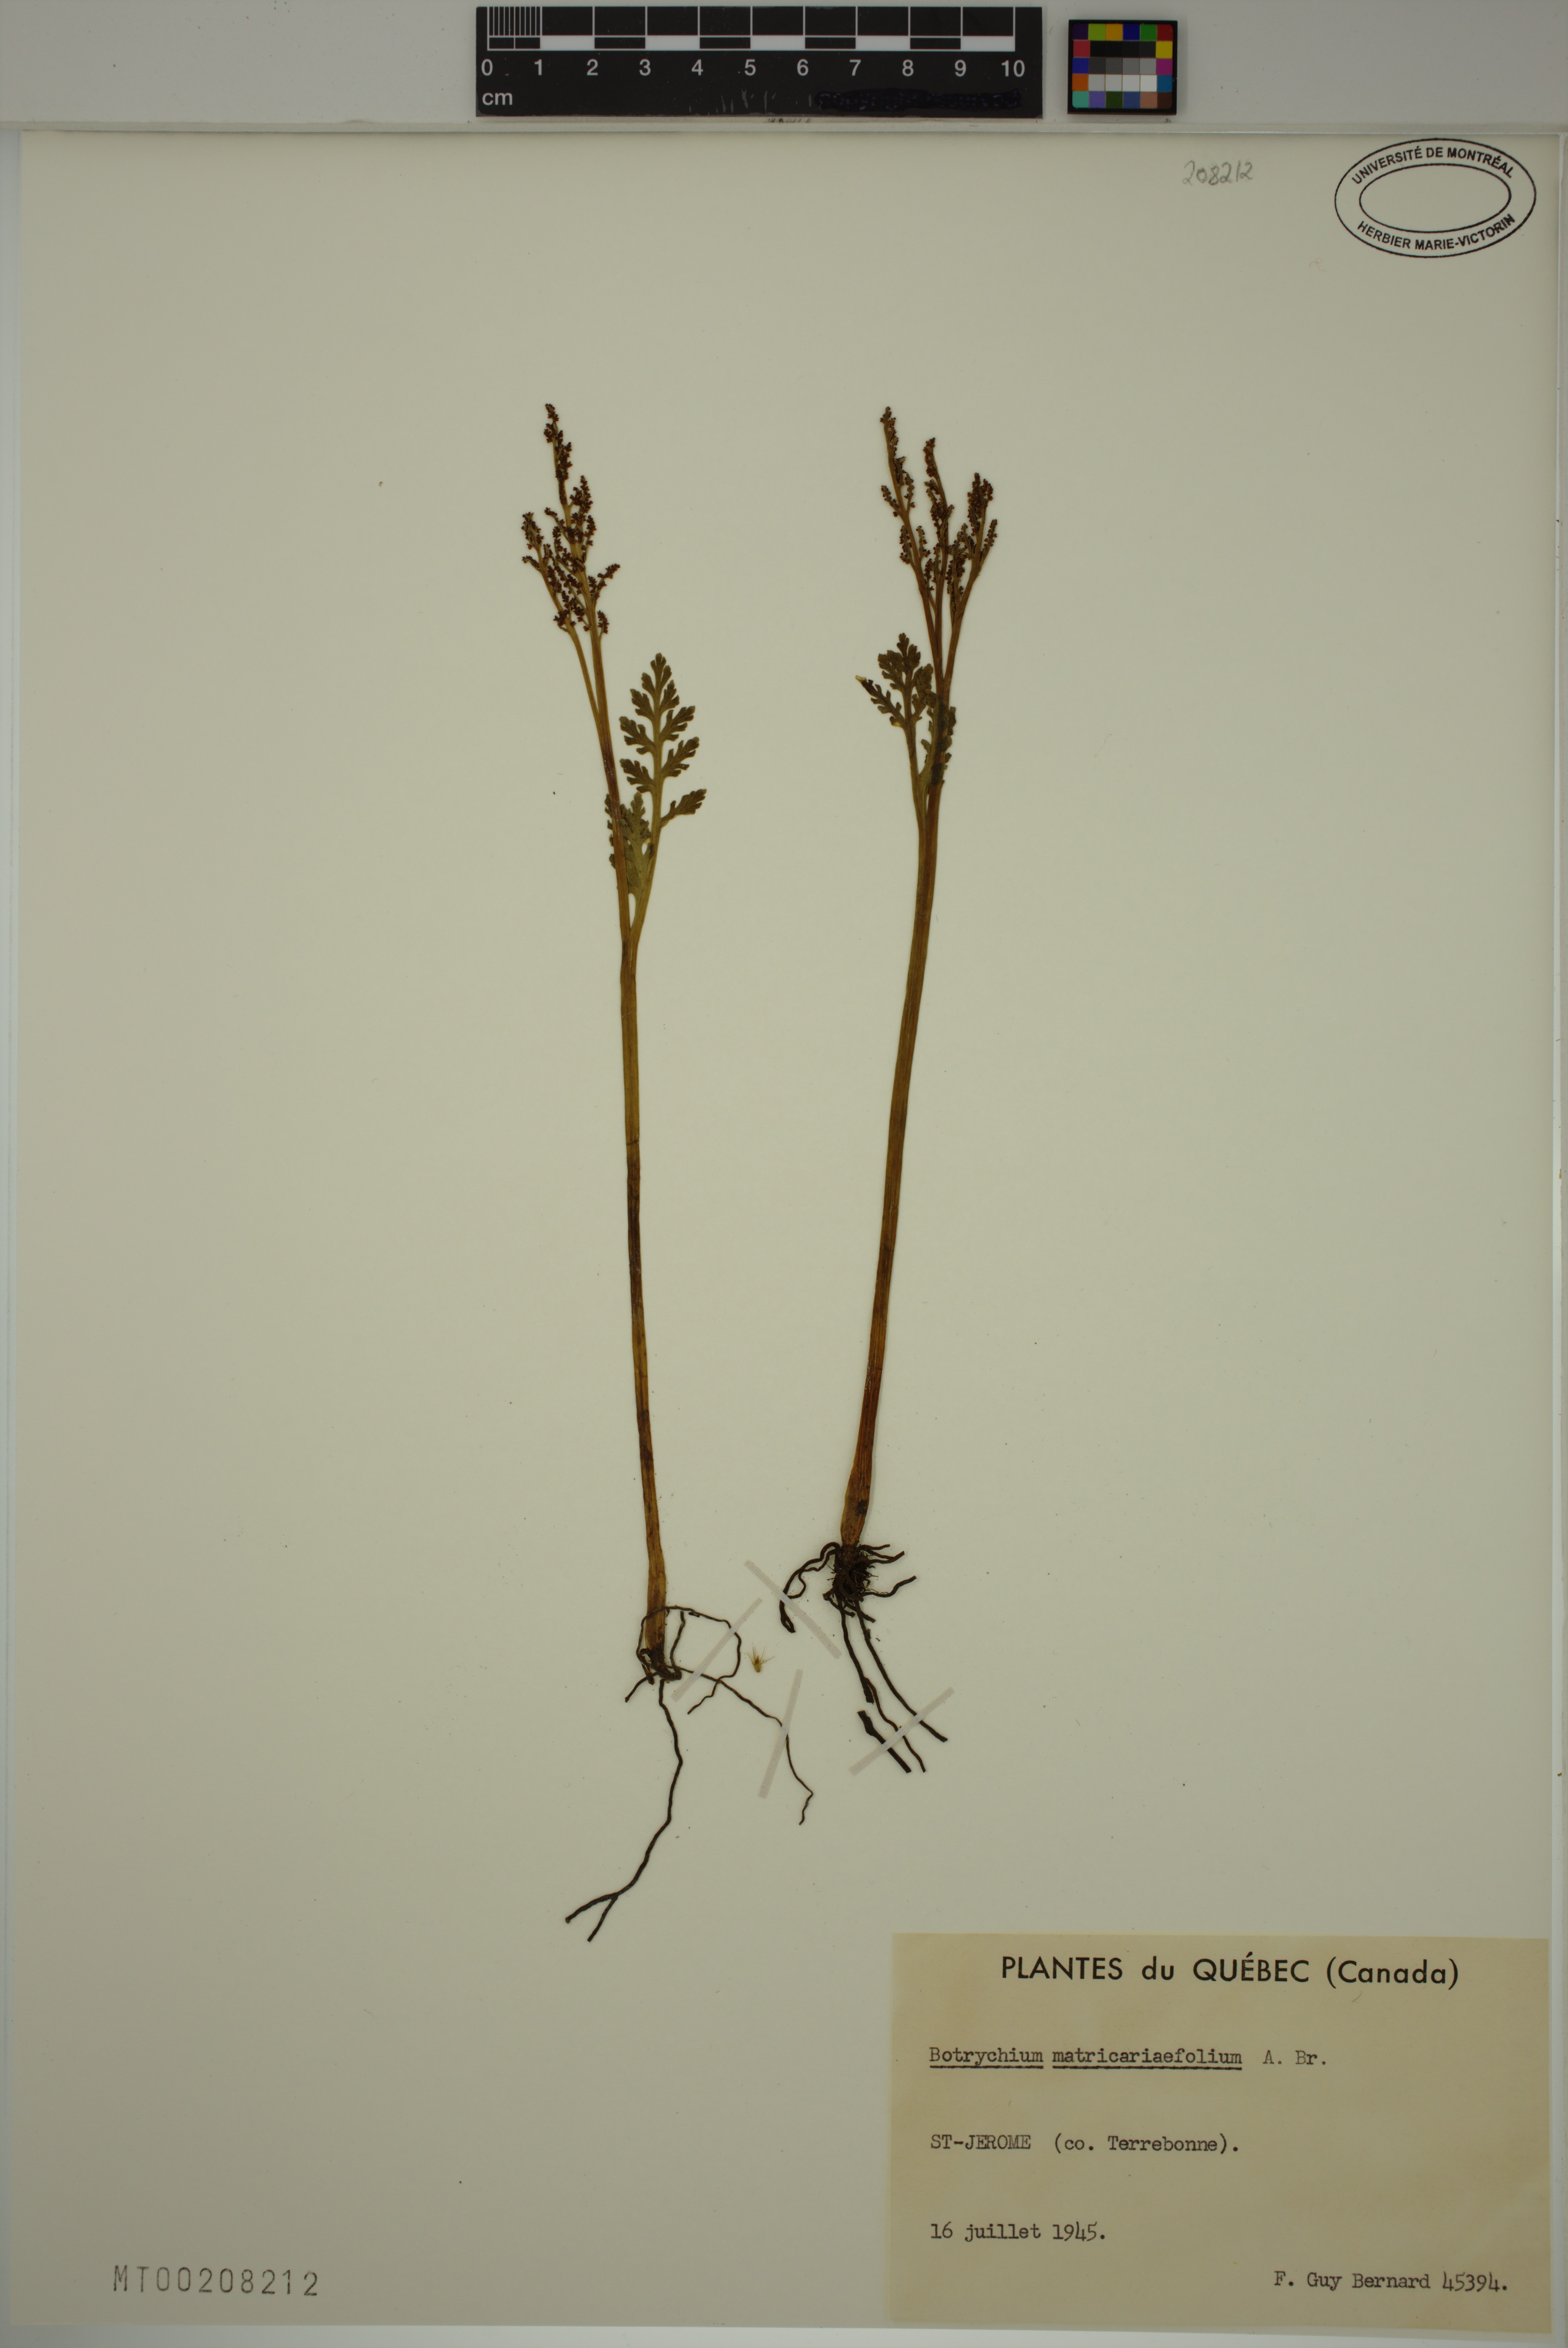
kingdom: Plantae
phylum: Tracheophyta
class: Polypodiopsida
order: Ophioglossales
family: Ophioglossaceae
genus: Botrychium
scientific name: Botrychium matricariifolium
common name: Branched moonwort
